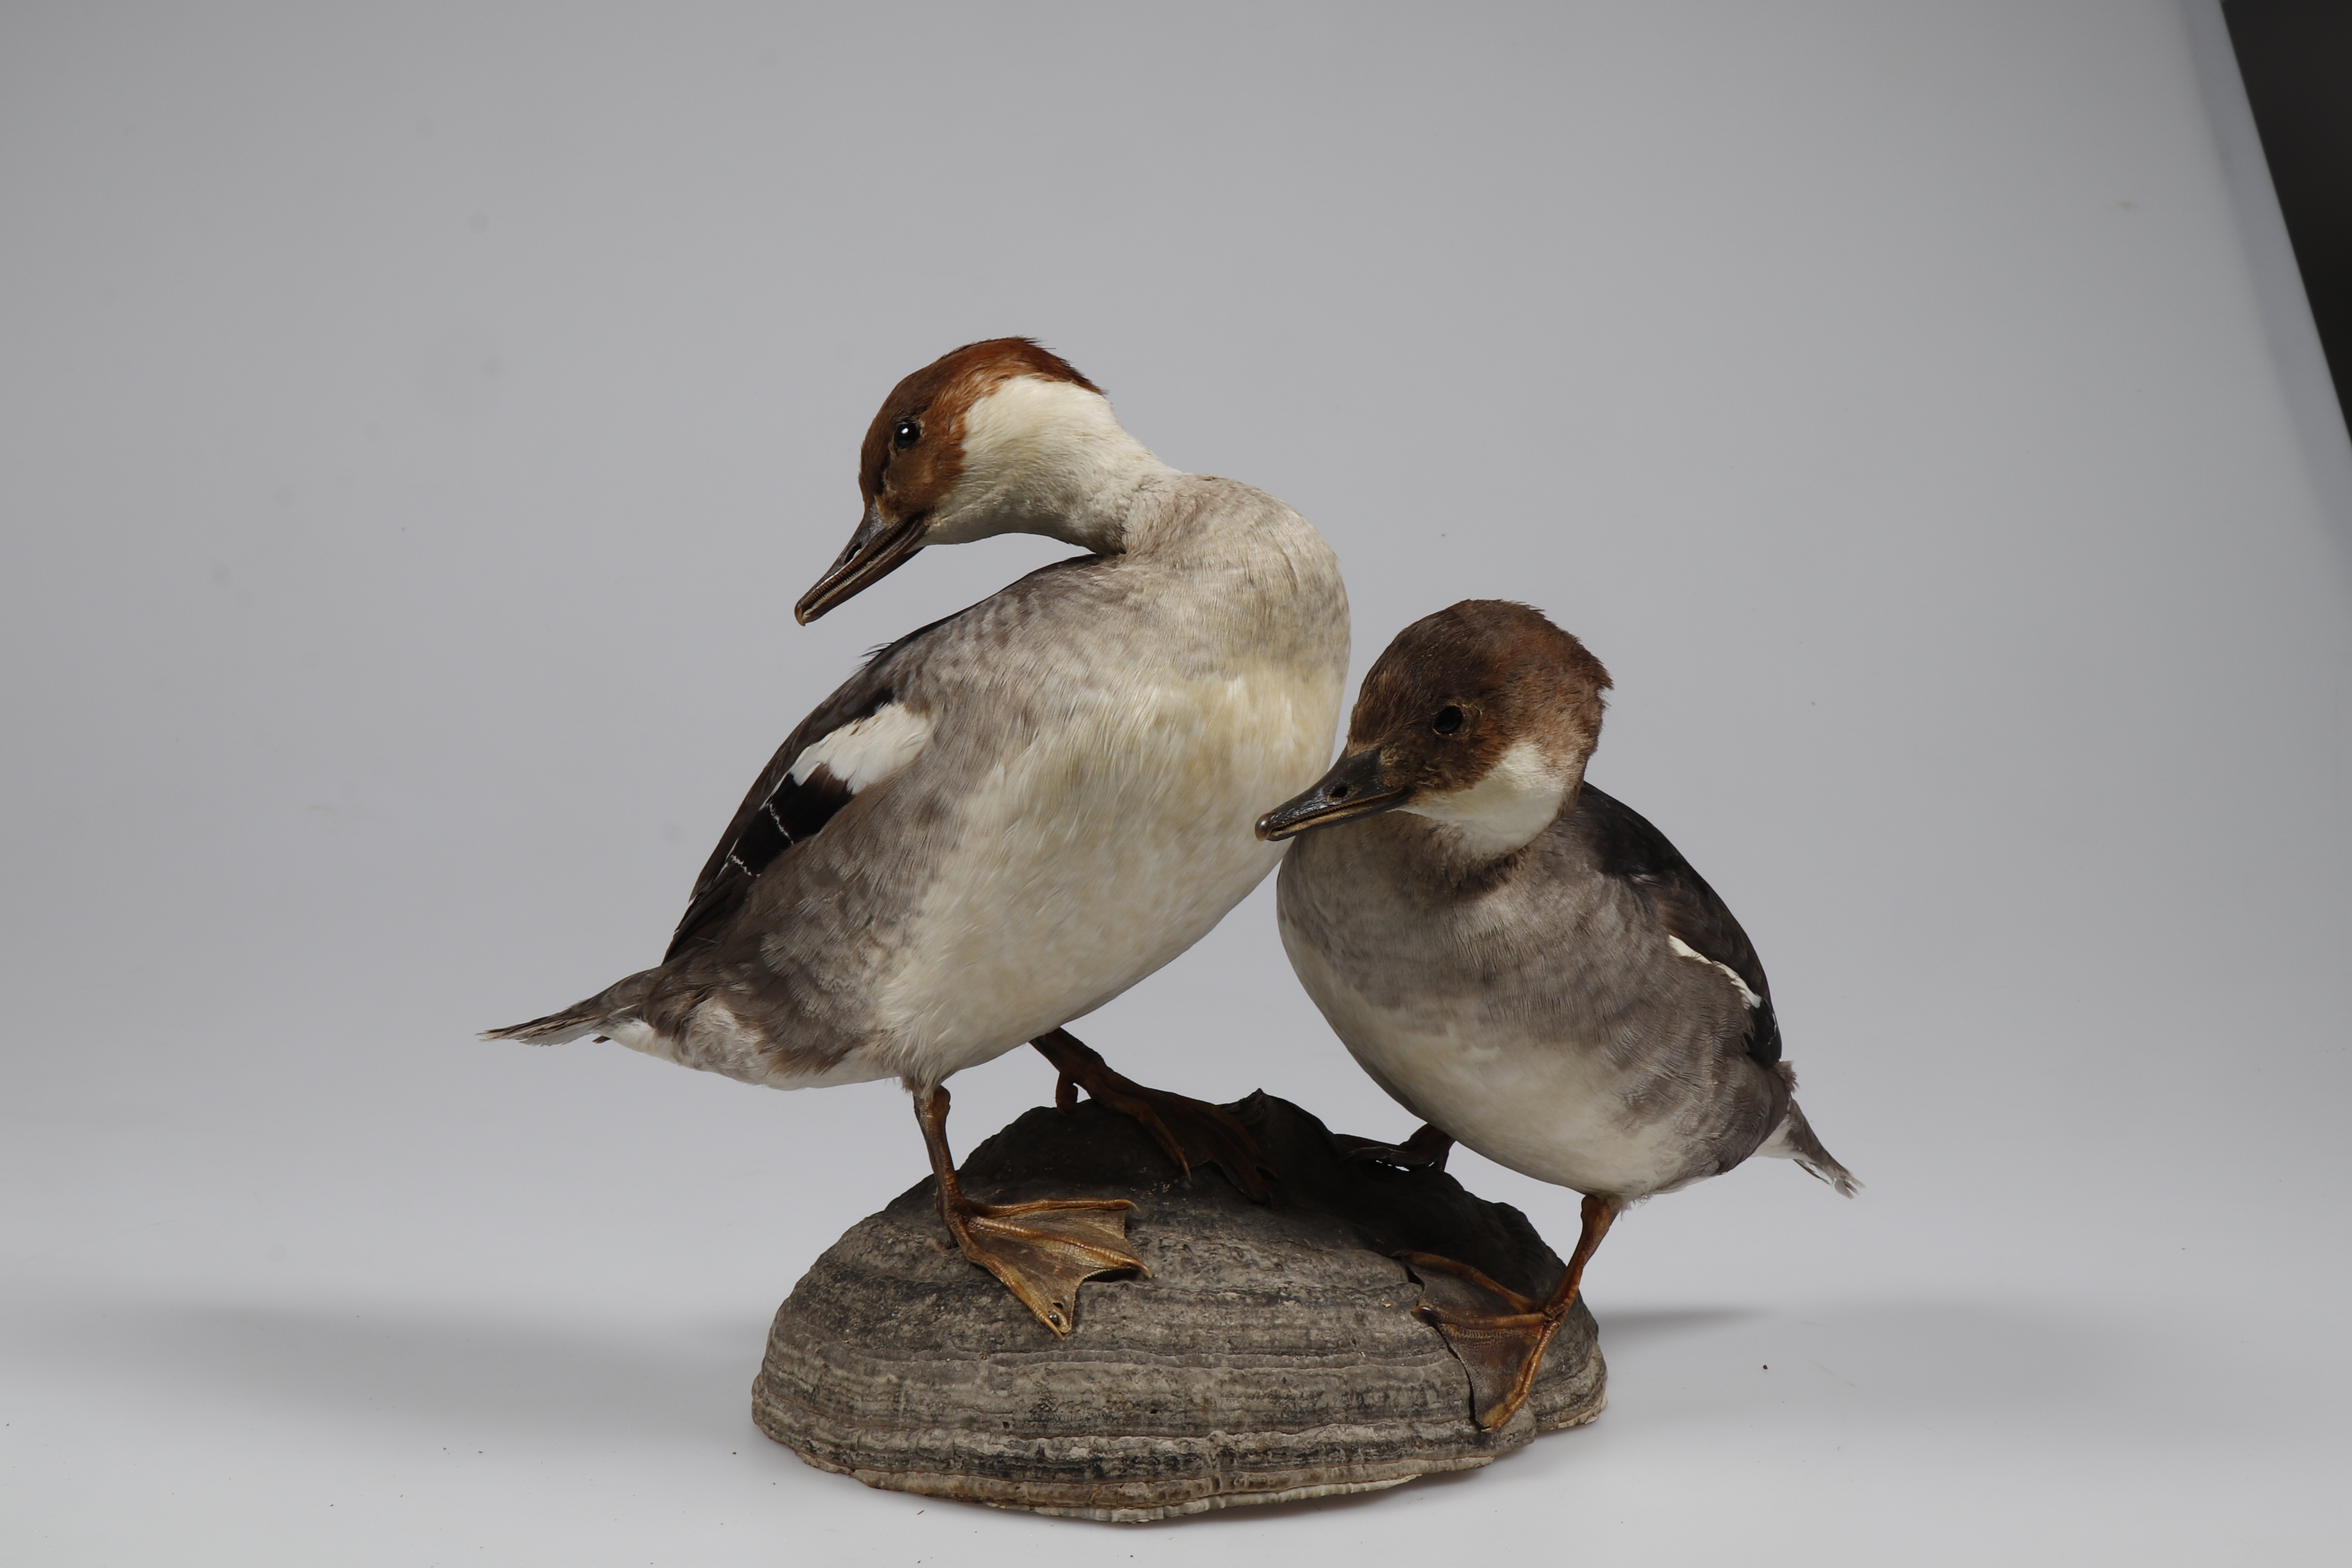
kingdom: Animalia
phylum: Chordata
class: Aves
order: Anseriformes
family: Anatidae
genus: Mergellus
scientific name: Mergellus albellus
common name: Smew
